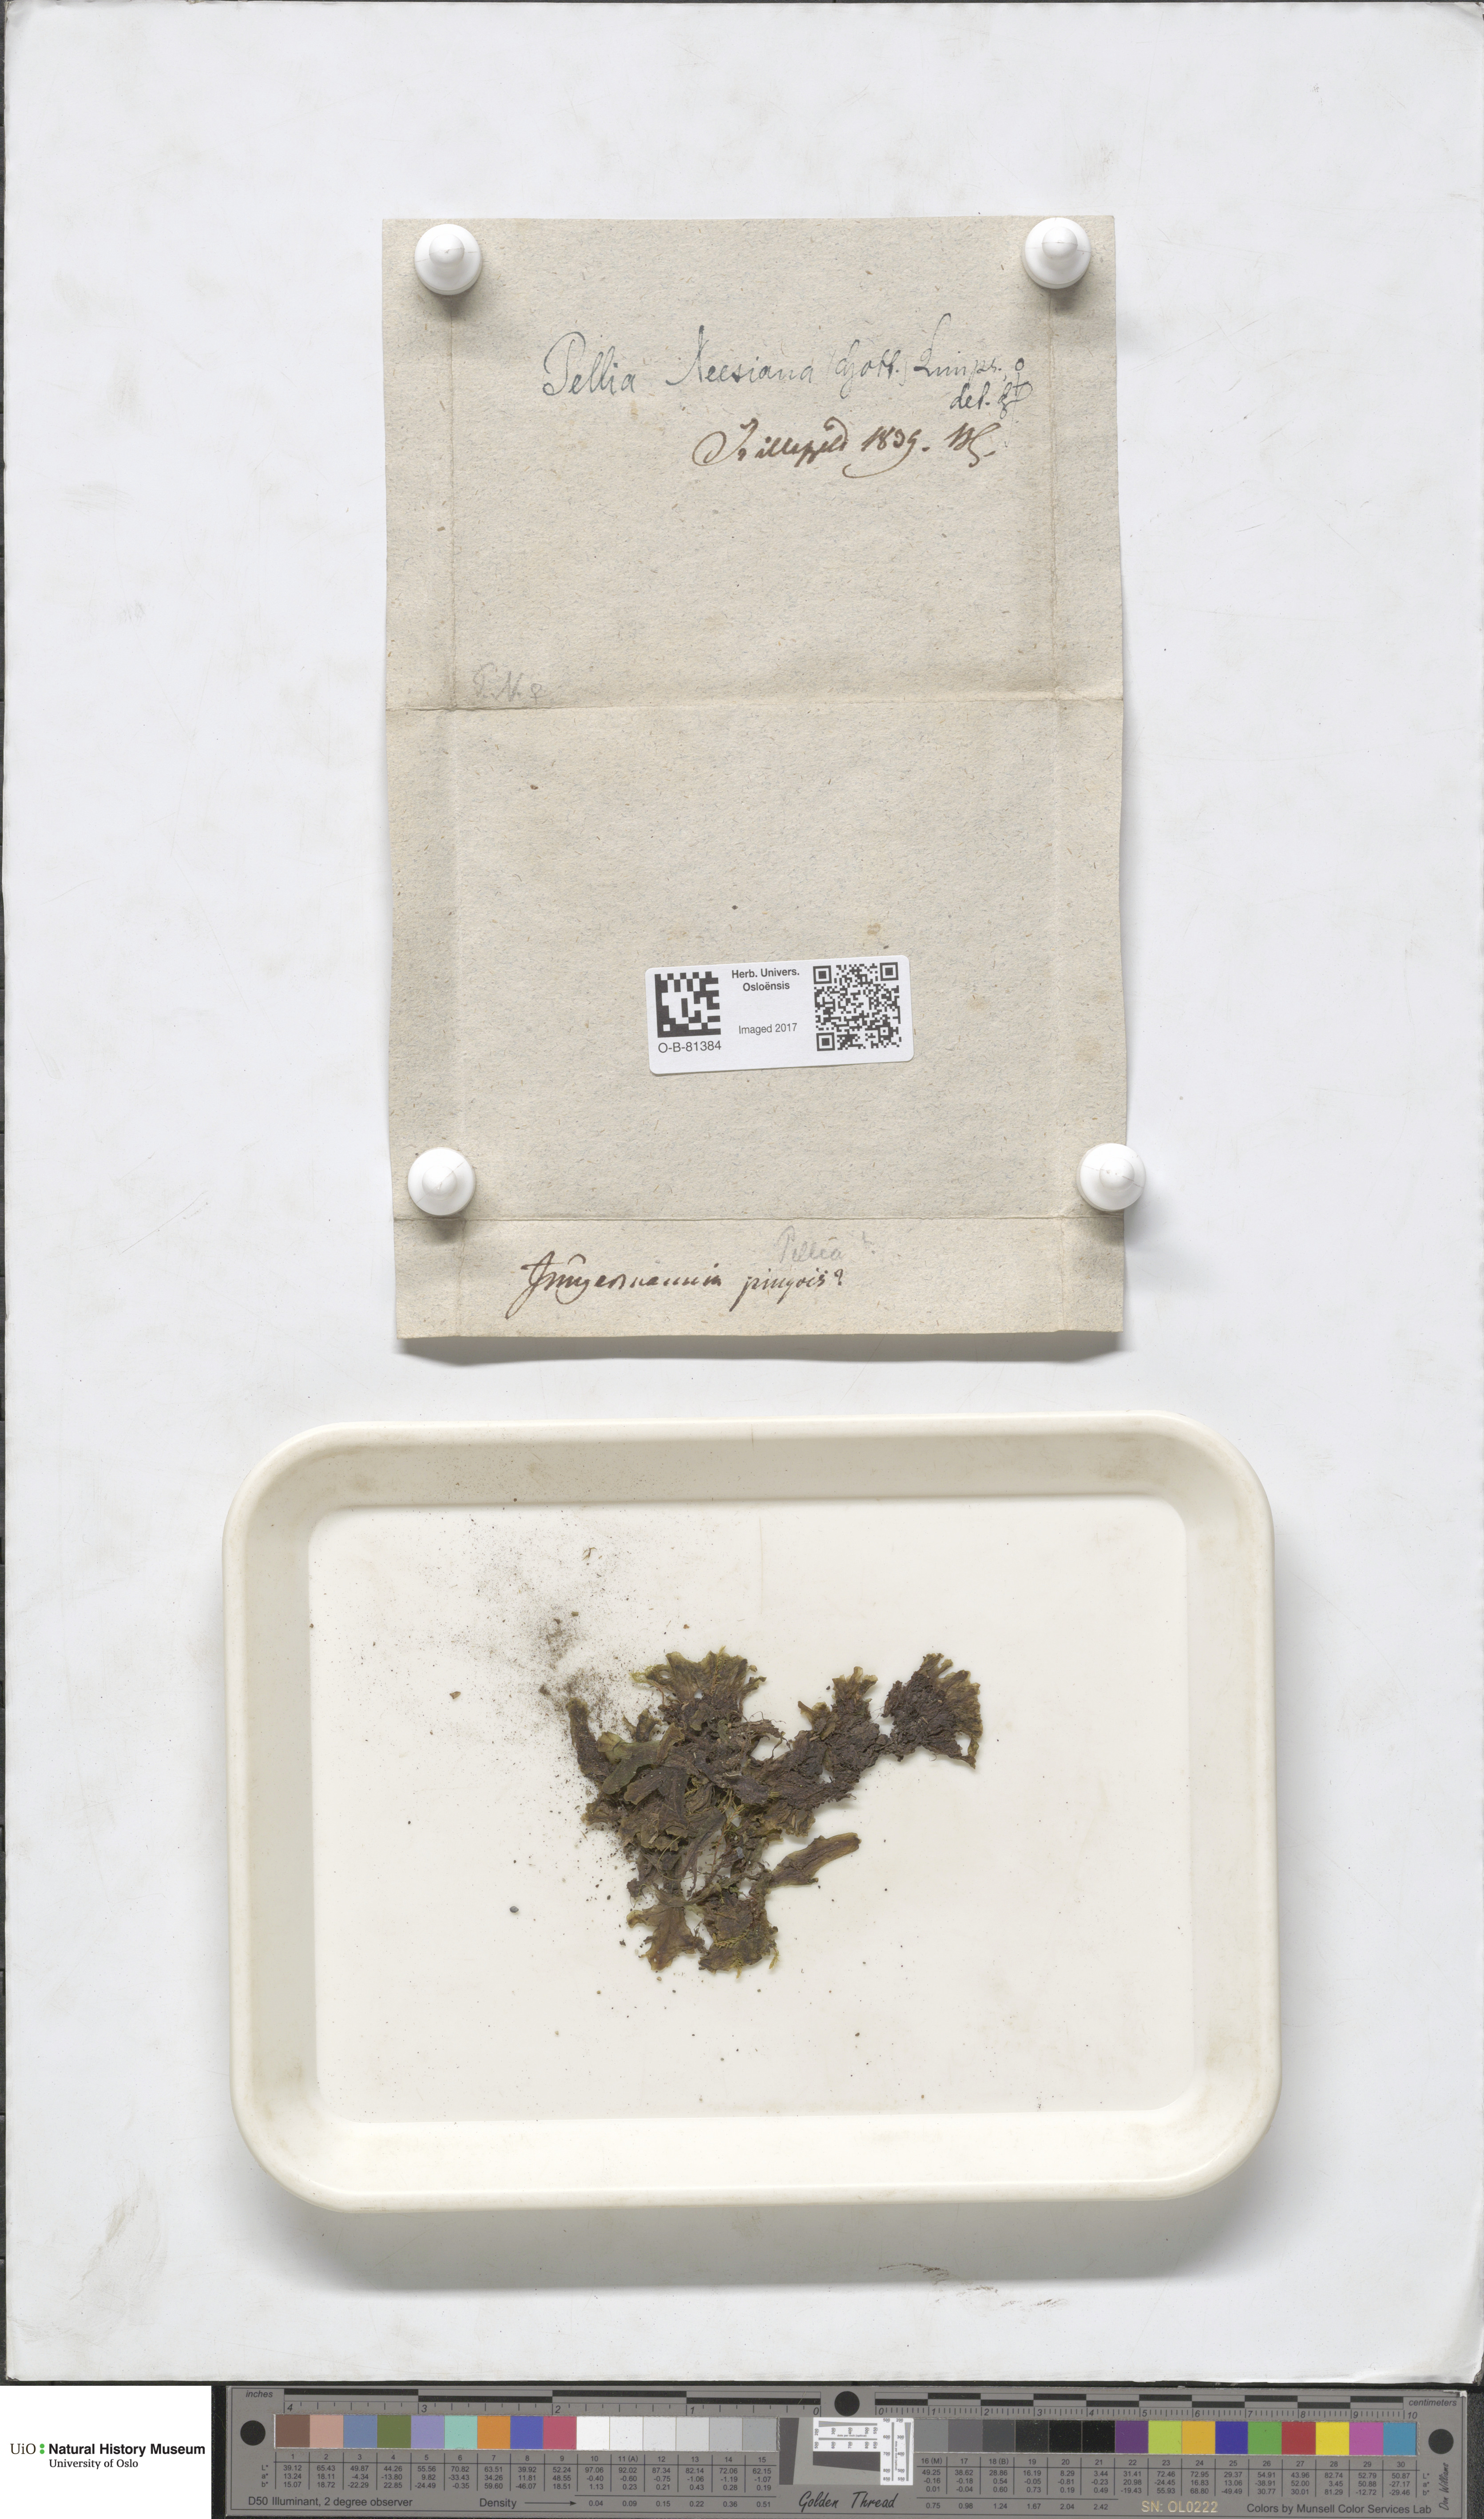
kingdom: Plantae
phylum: Marchantiophyta
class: Jungermanniopsida
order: Pelliales
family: Pelliaceae
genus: Pellia
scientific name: Pellia neesiana
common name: Nees  pellia
